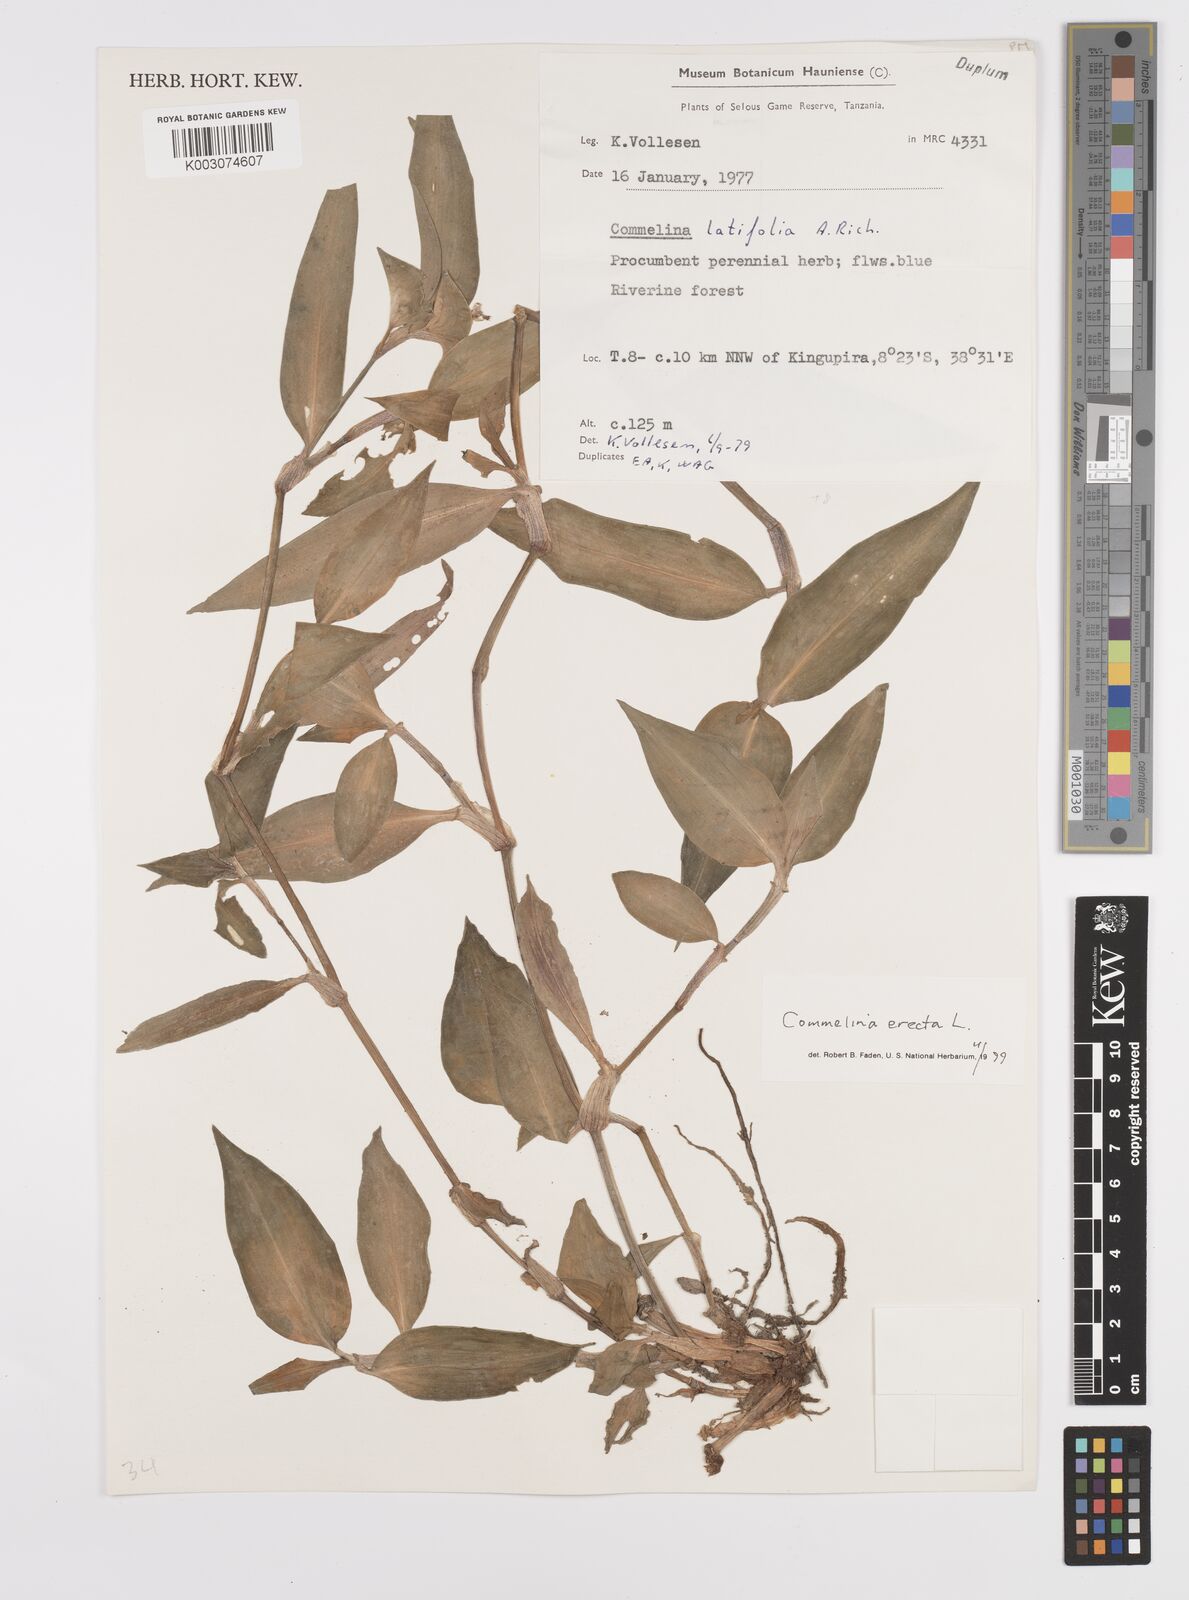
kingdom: Plantae
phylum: Tracheophyta
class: Liliopsida
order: Commelinales
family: Commelinaceae
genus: Commelina
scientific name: Commelina erecta
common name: Blousel blommetjie
